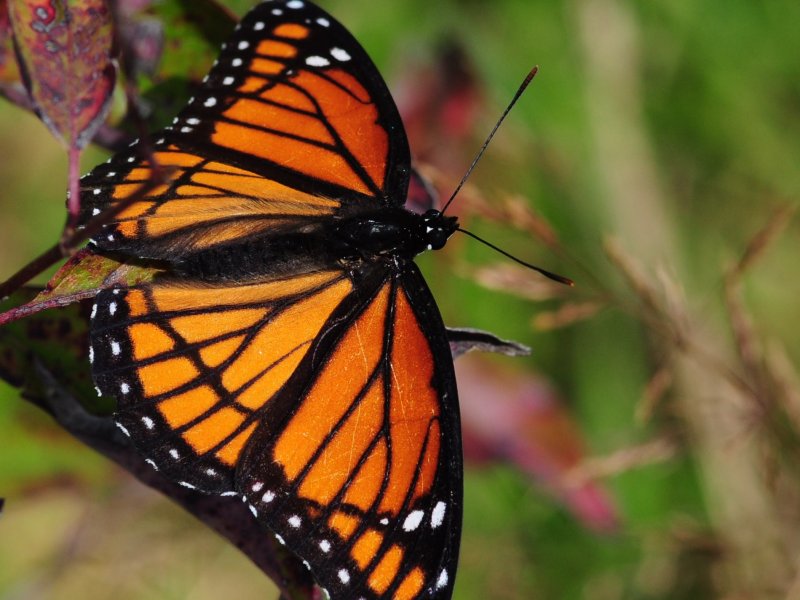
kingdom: Animalia
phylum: Arthropoda
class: Insecta
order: Lepidoptera
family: Nymphalidae
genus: Limenitis
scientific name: Limenitis archippus
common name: Viceroy
